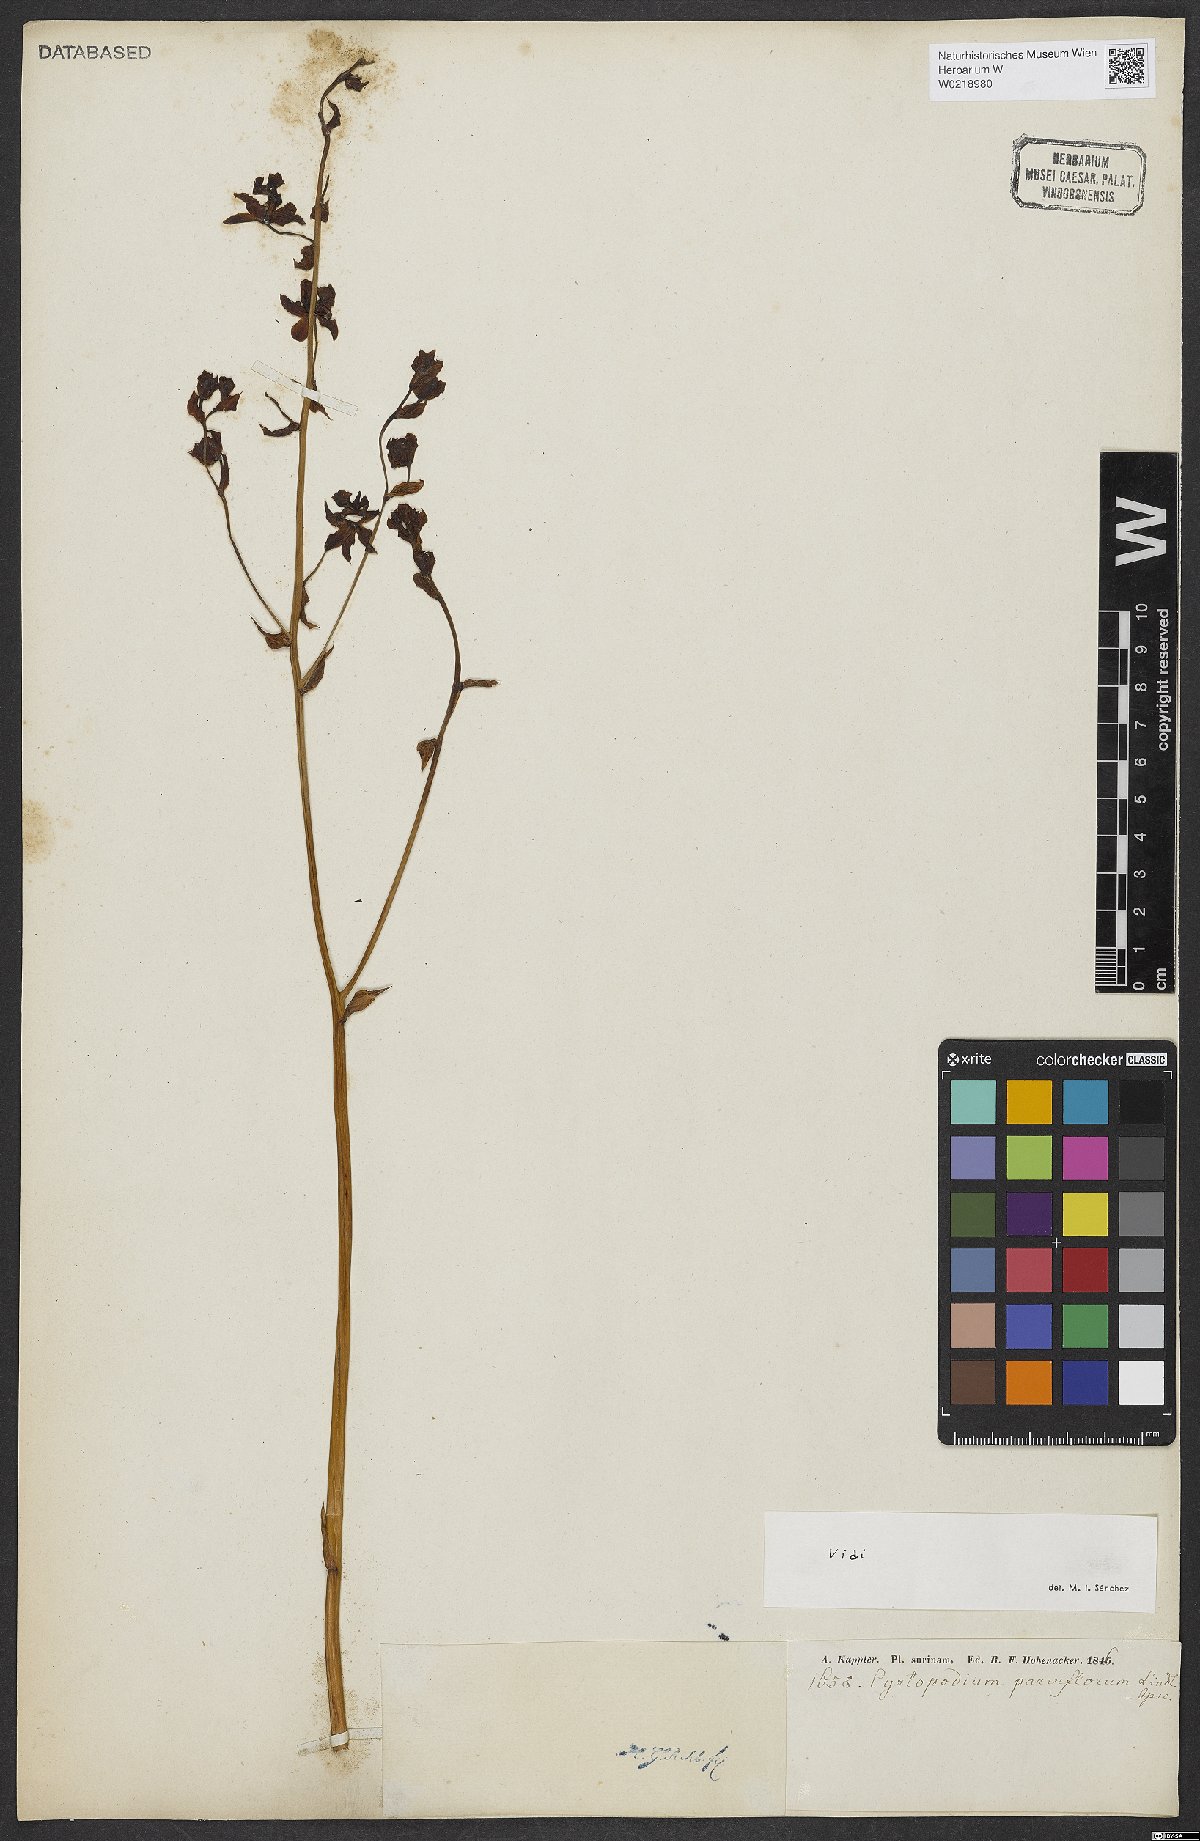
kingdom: Plantae
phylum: Tracheophyta
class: Liliopsida
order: Asparagales
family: Orchidaceae
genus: Cyrtopodium
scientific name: Cyrtopodium parviflorum
